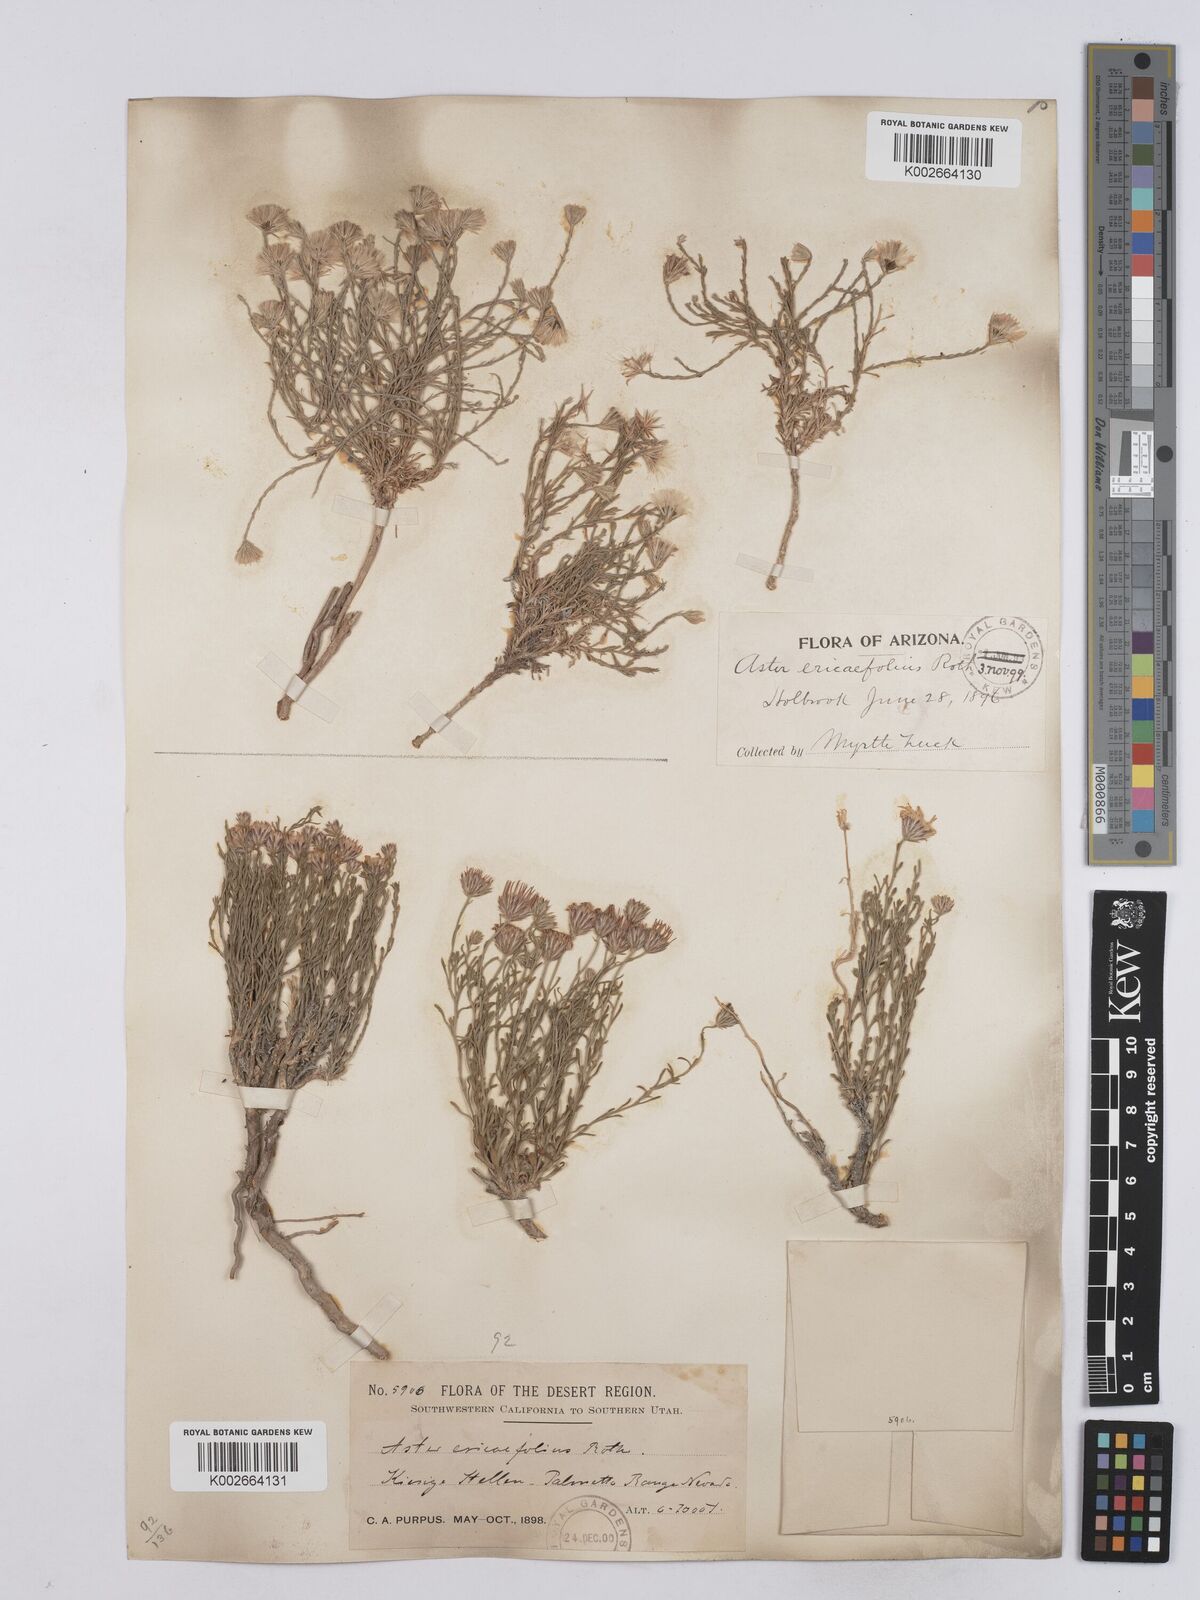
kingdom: Plantae
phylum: Tracheophyta
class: Magnoliopsida
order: Asterales
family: Asteraceae
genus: Chaetopappa
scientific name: Chaetopappa ericoides
